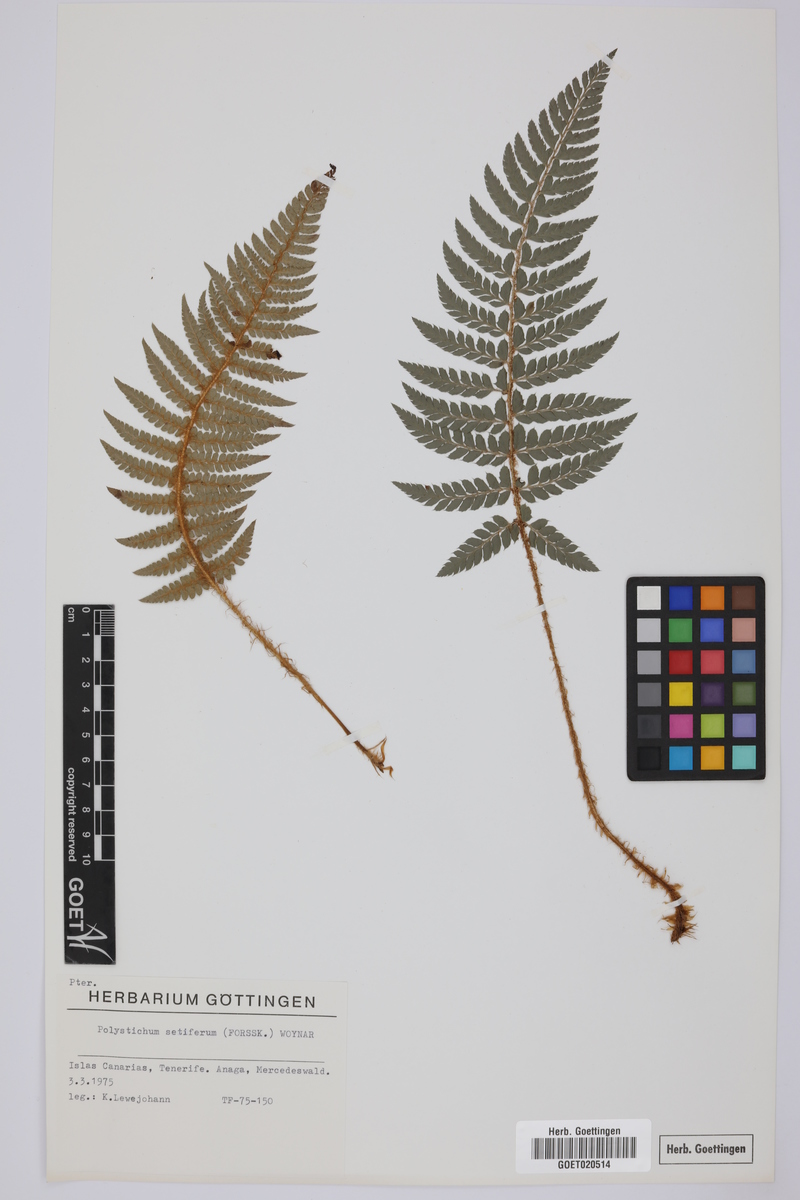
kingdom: Plantae
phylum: Tracheophyta
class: Polypodiopsida
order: Polypodiales
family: Dryopteridaceae
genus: Polystichum
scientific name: Polystichum setiferum
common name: Soft shield-fern
